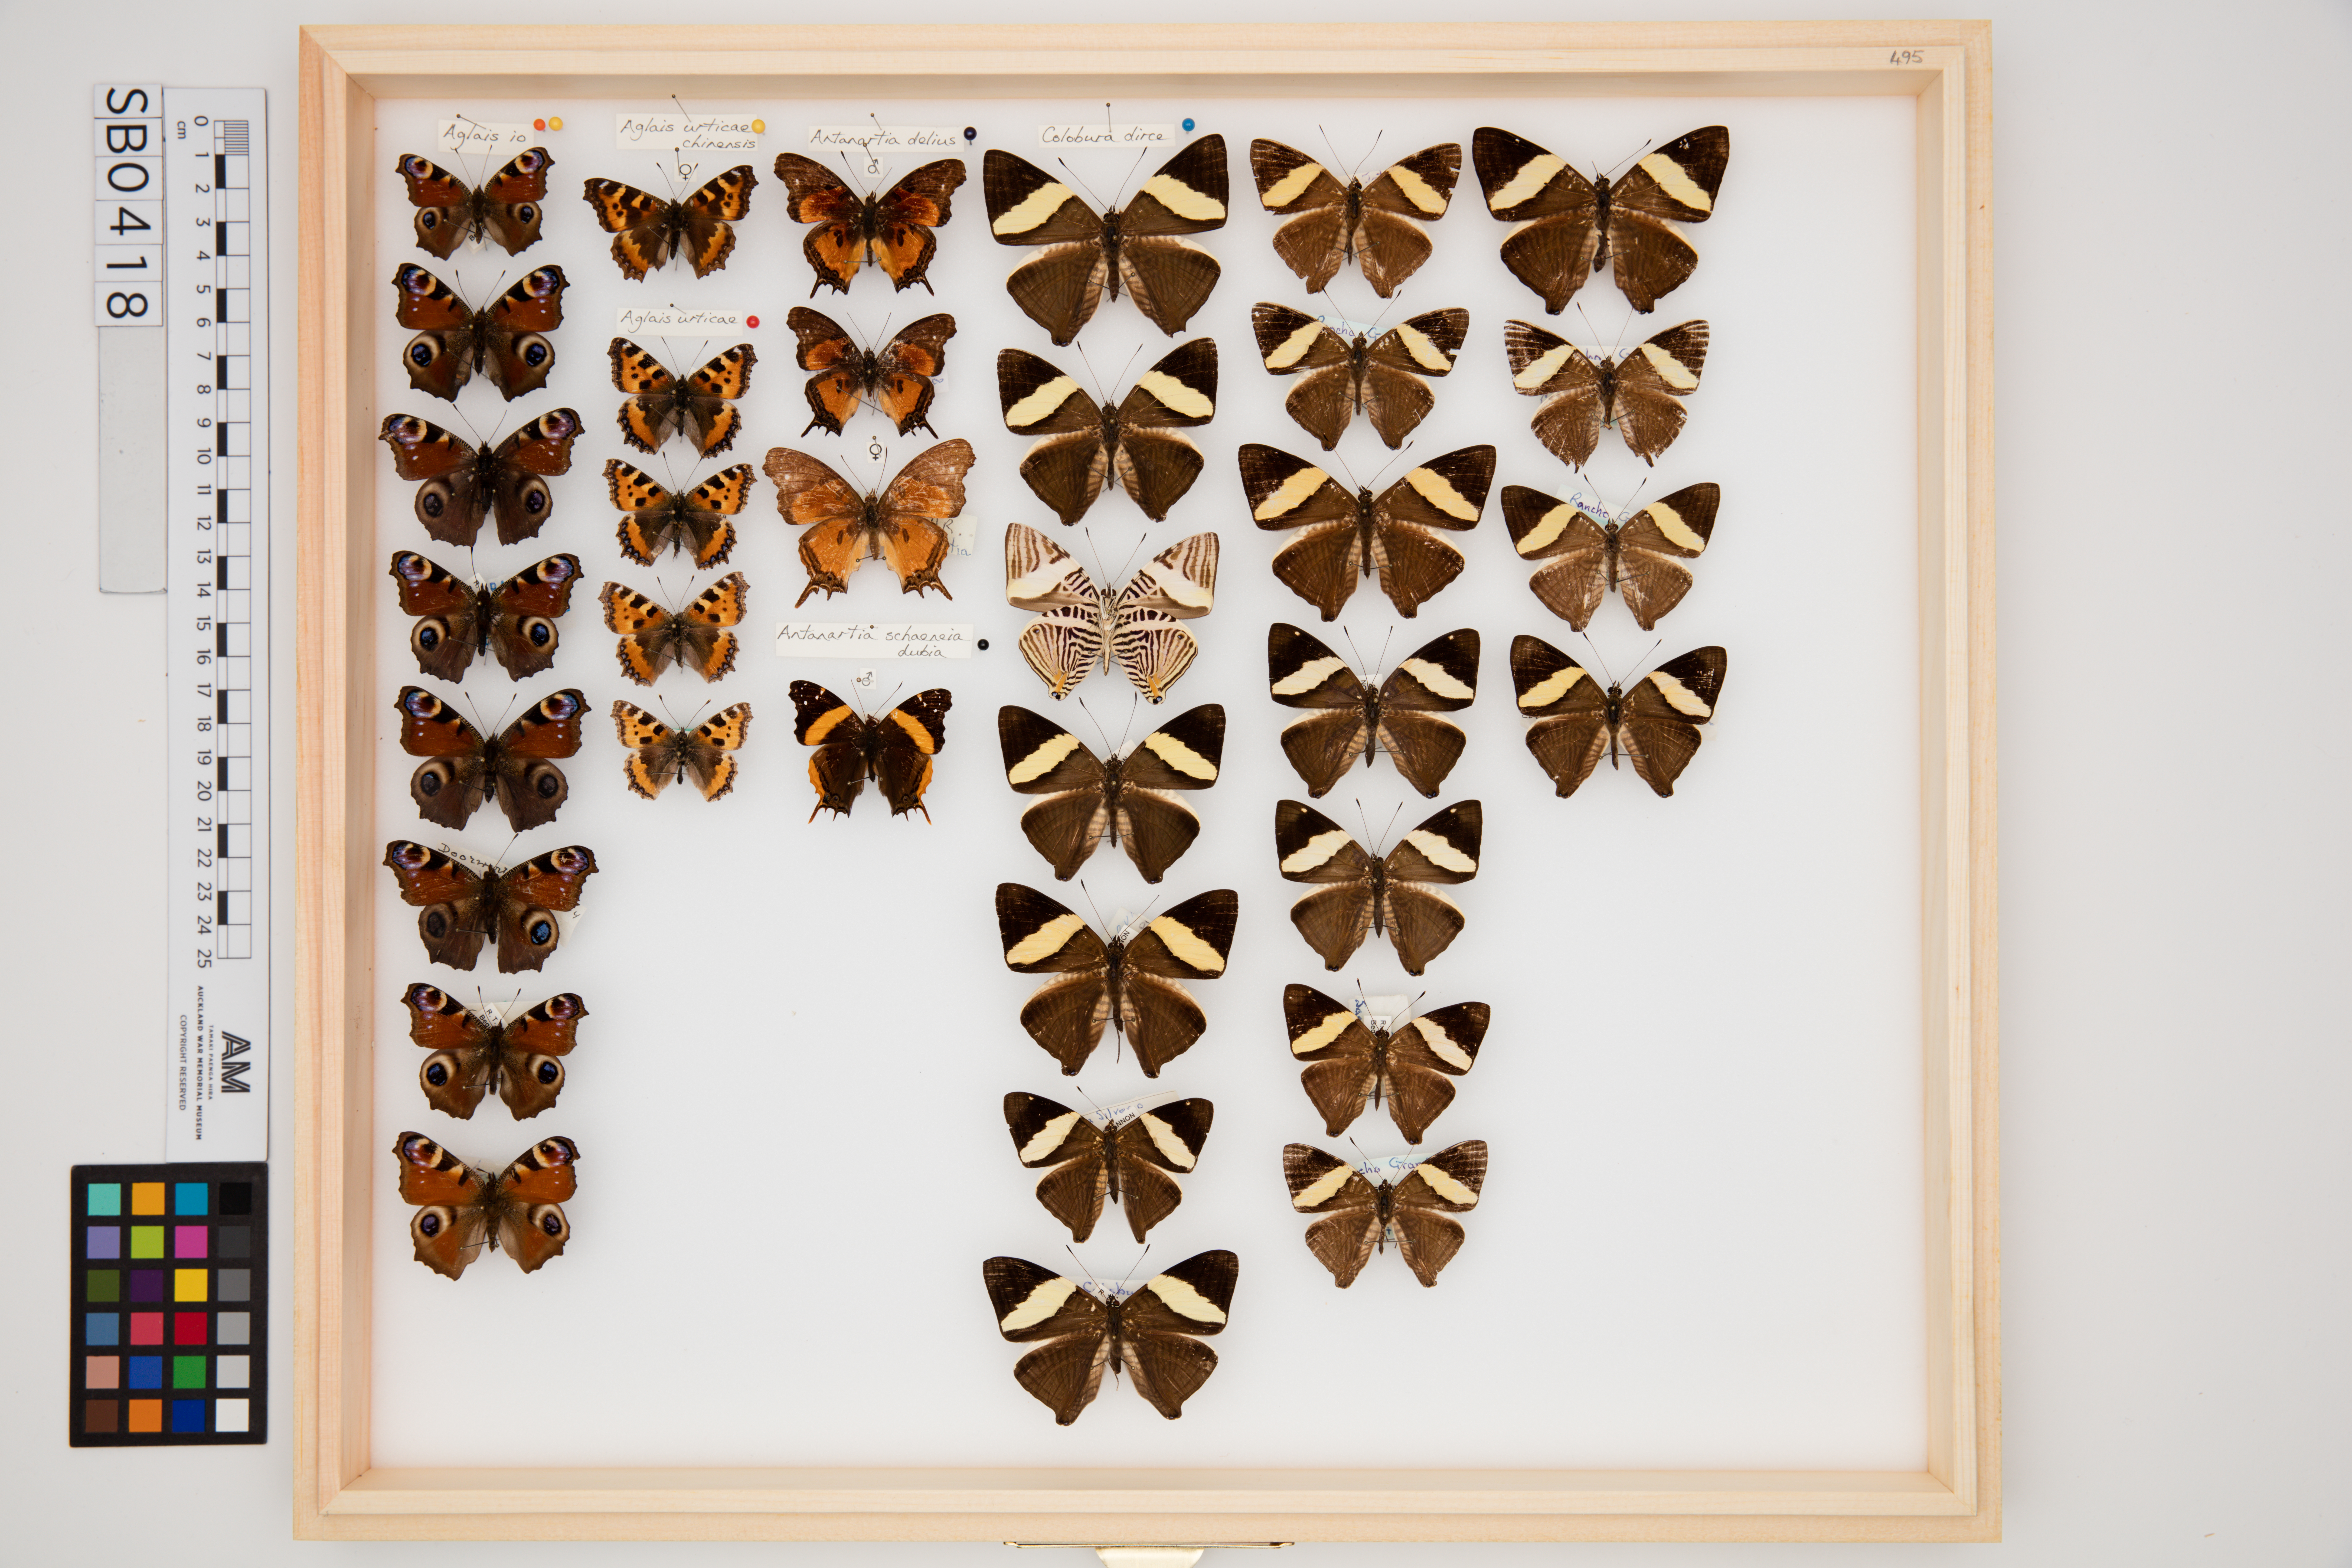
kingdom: Animalia
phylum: Arthropoda
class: Insecta
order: Lepidoptera
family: Nymphalidae
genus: Aglais
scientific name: Aglais urticae
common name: Small tortoiseshell
